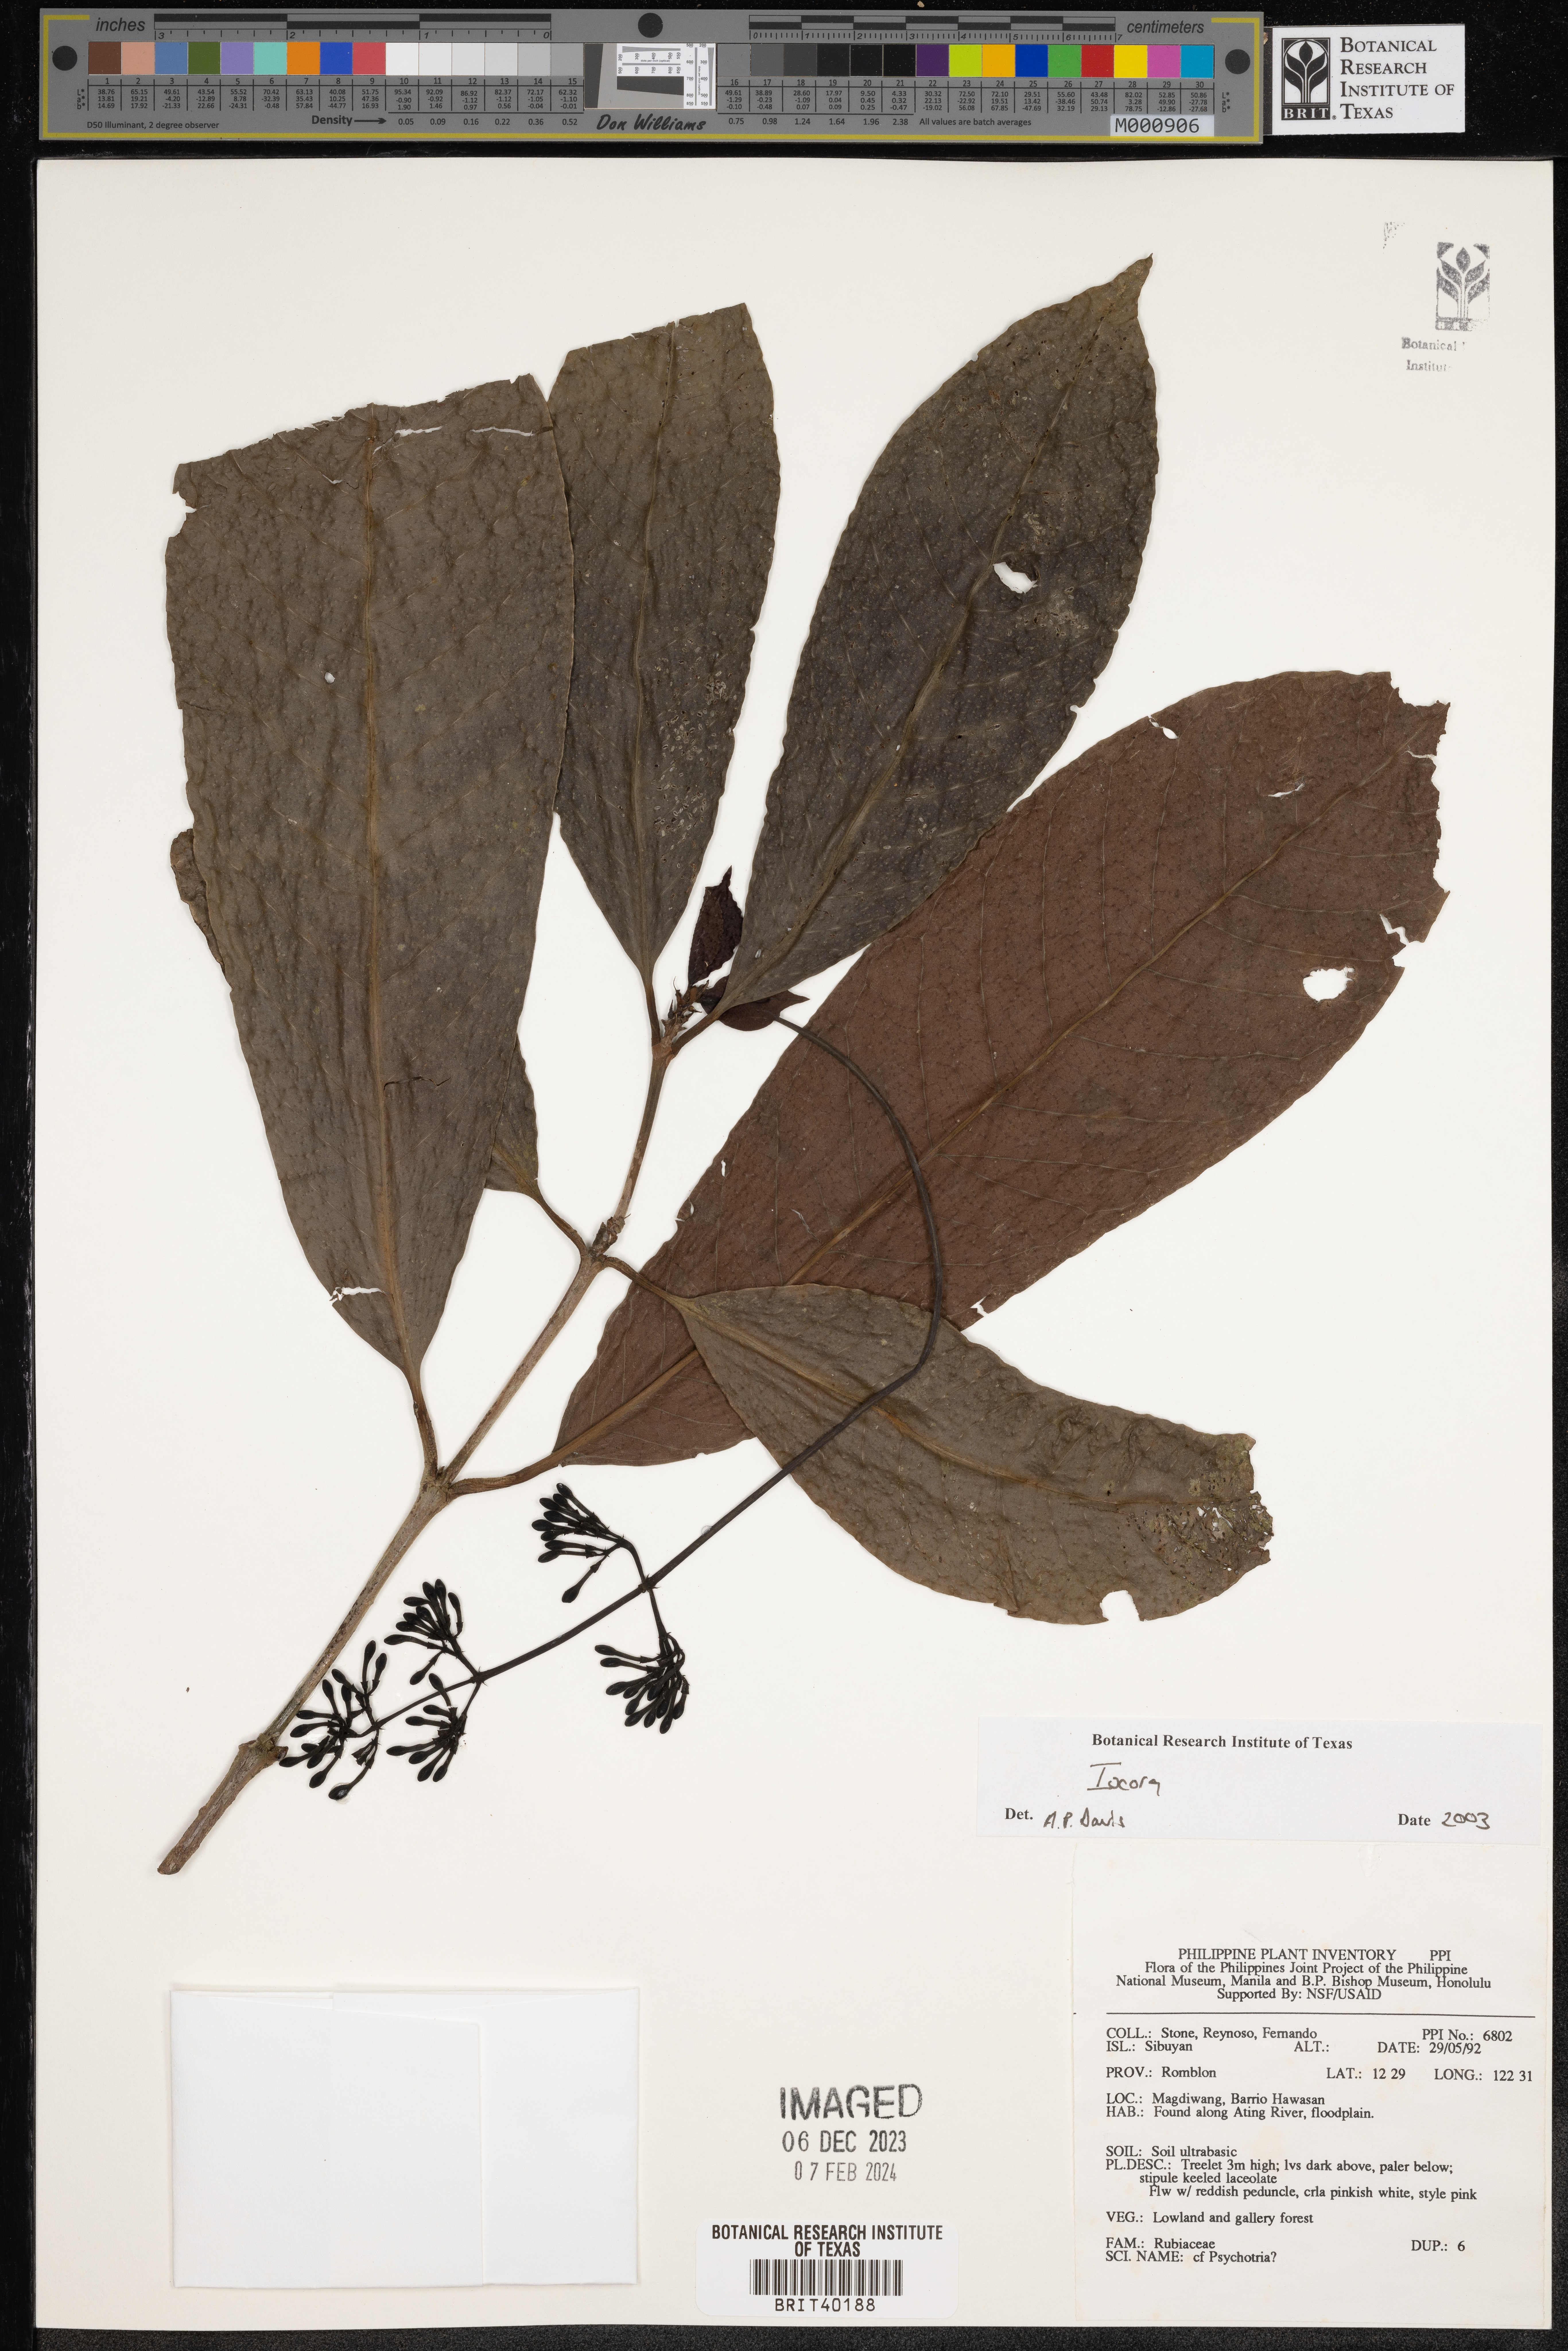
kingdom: Plantae
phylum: Tracheophyta
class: Magnoliopsida
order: Gentianales
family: Rubiaceae
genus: Ixora
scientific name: Ixora
